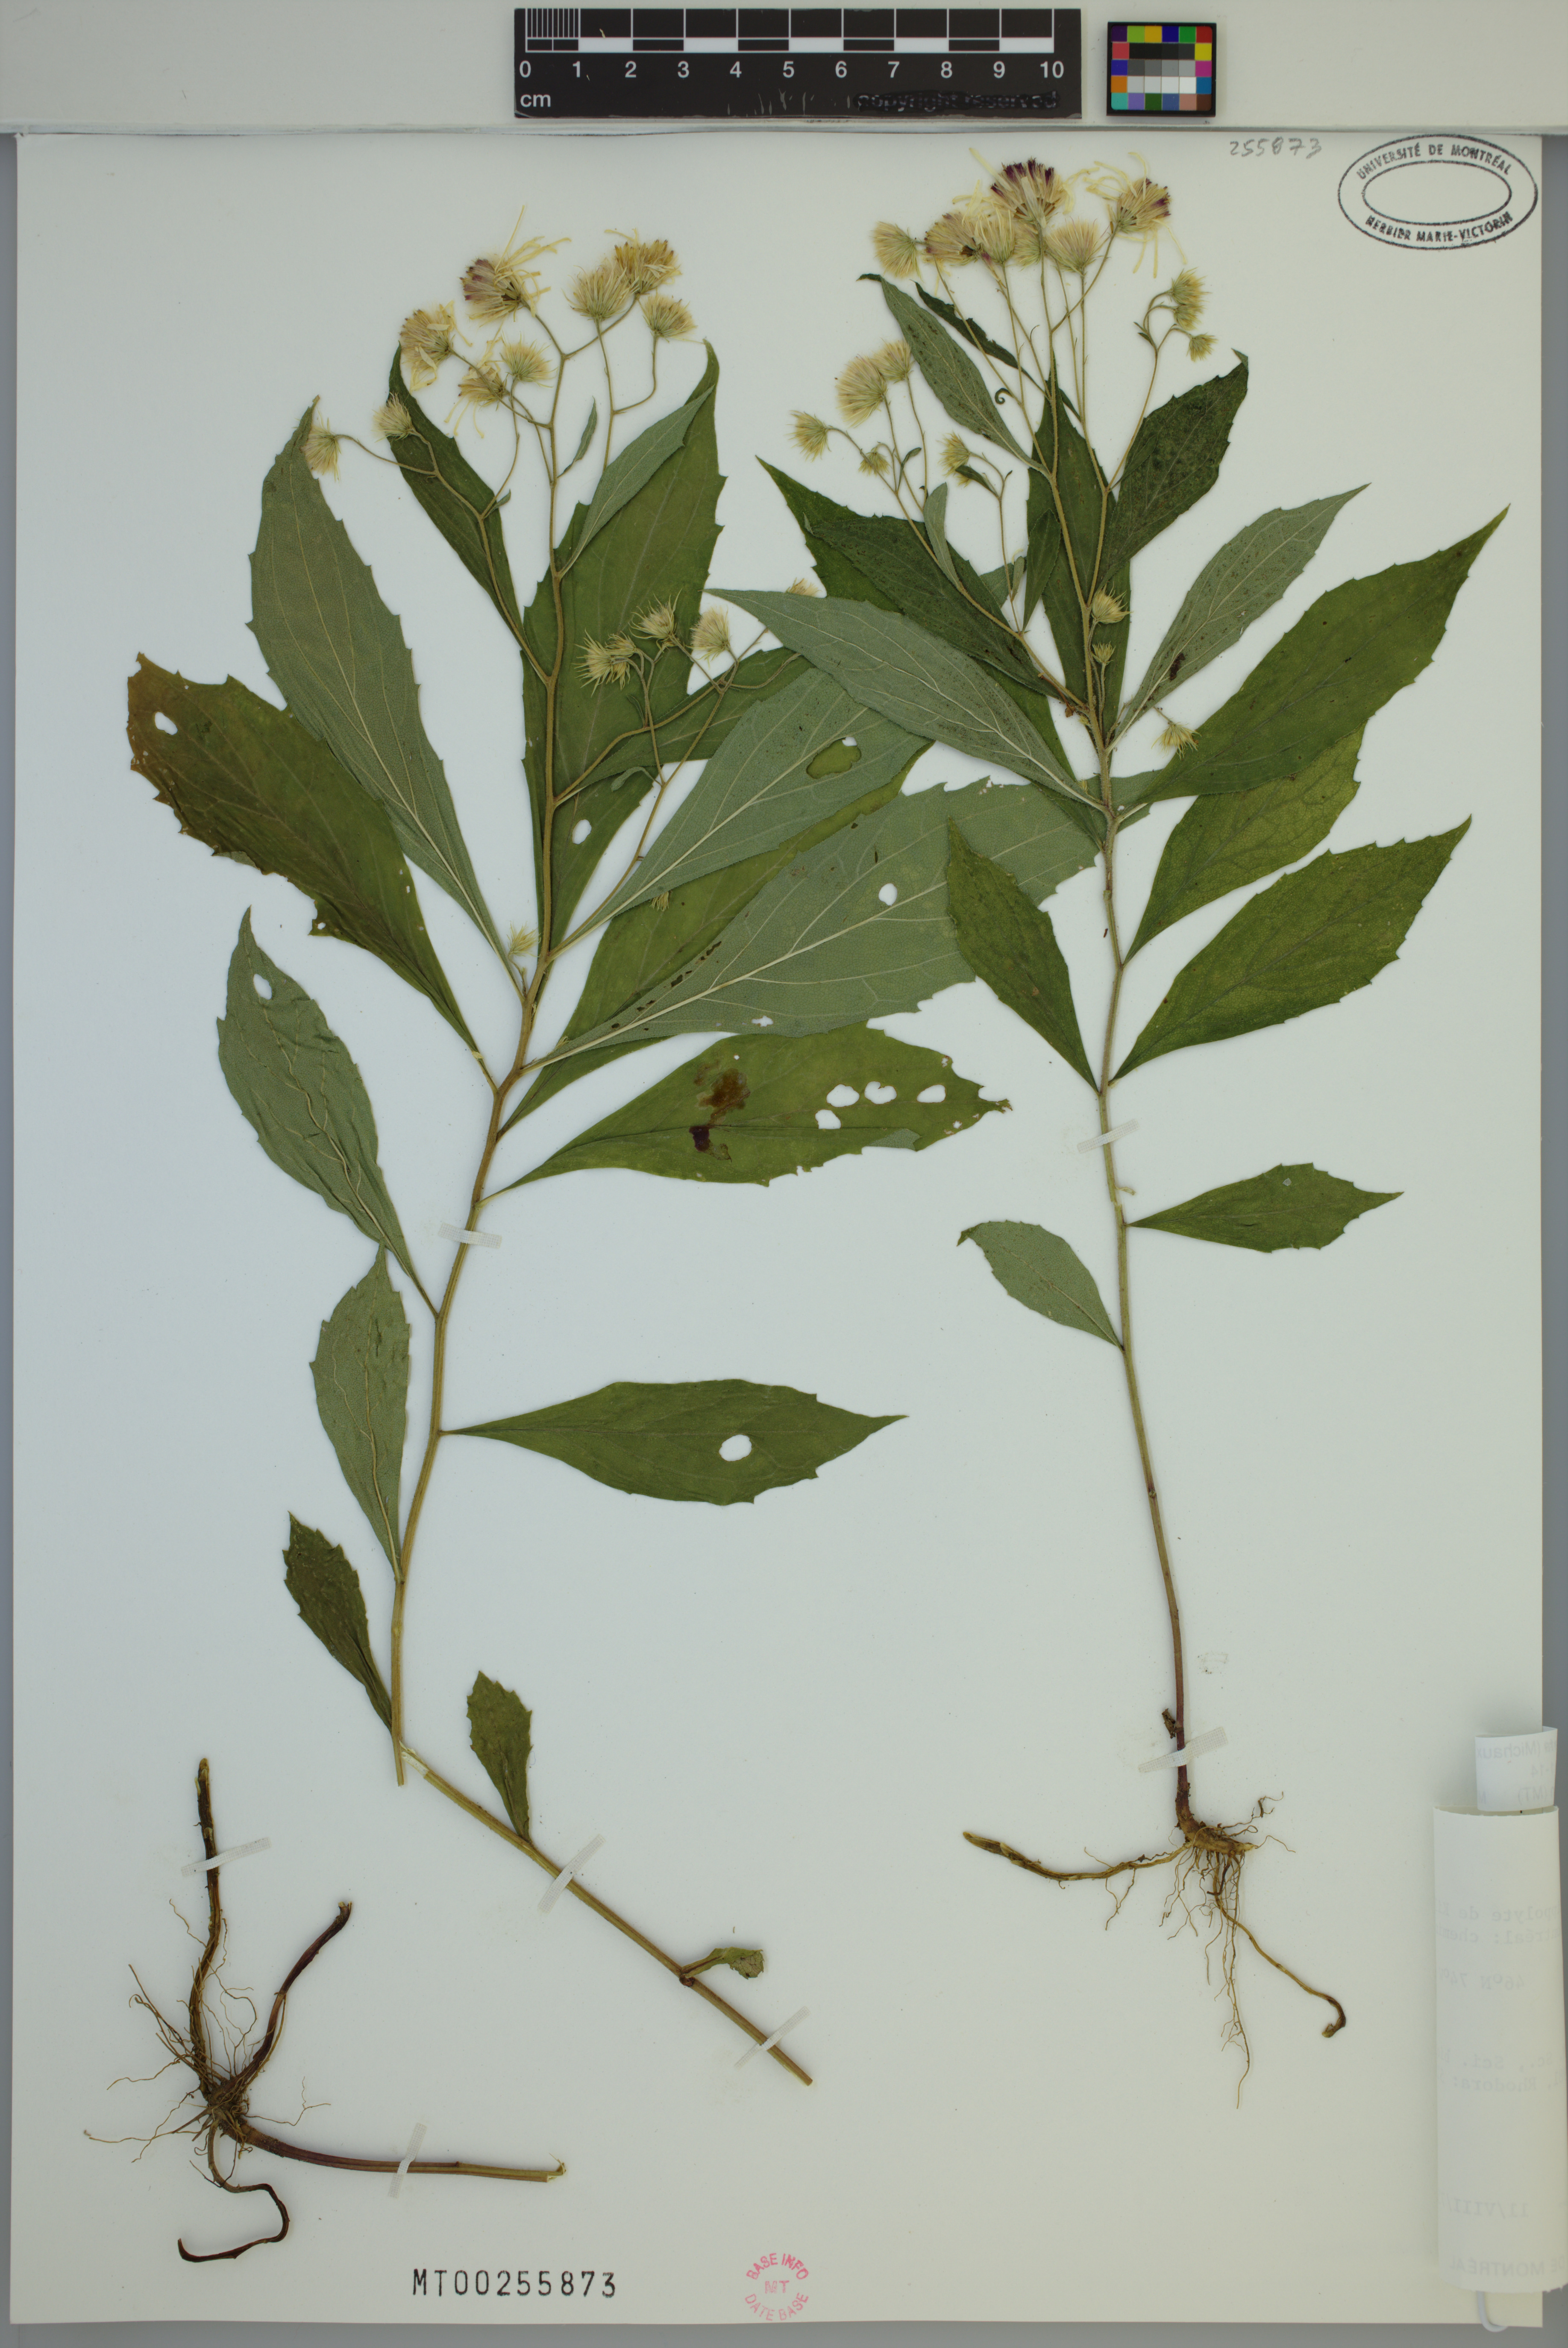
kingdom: Plantae
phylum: Tracheophyta
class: Magnoliopsida
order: Asterales
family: Asteraceae
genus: Oclemena
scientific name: Oclemena acuminata
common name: Mountain aster
